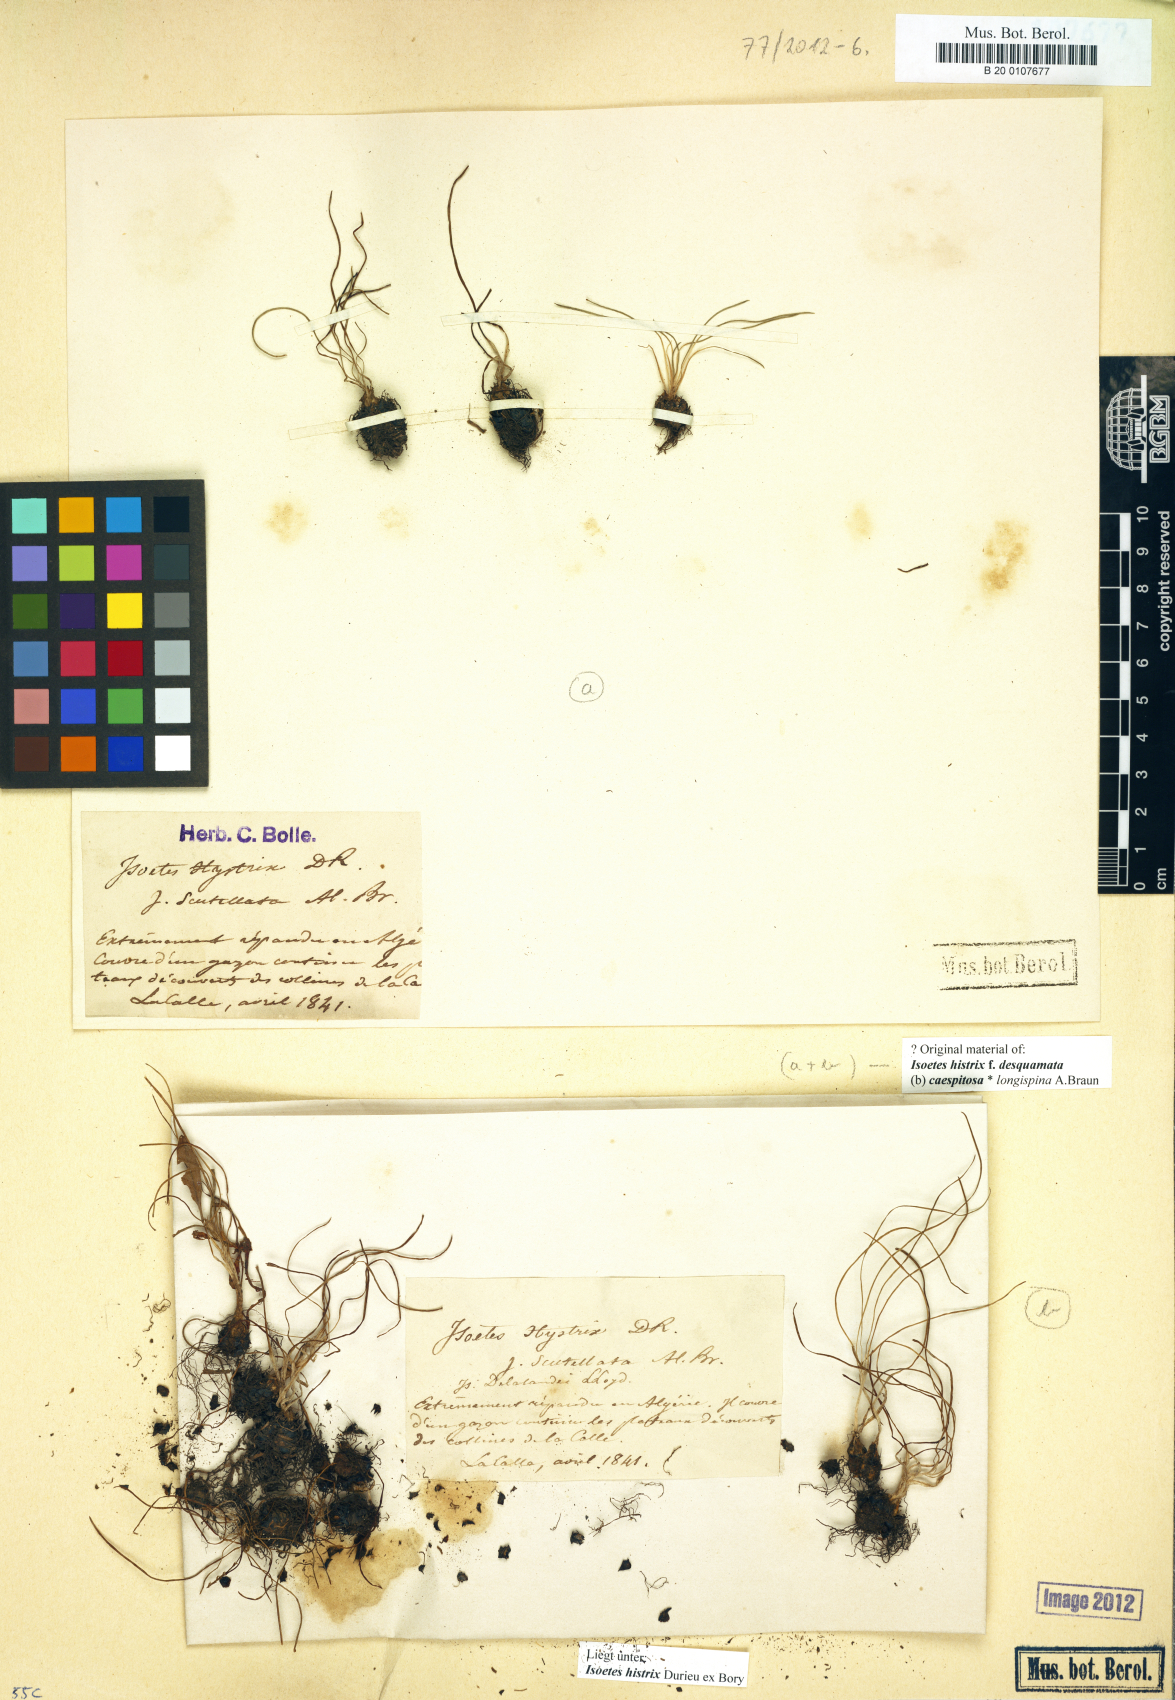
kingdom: Plantae
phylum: Tracheophyta
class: Lycopodiopsida
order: Isoetales
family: Isoetaceae
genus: Isoetes
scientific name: Isoetes histrix
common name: Land quillwort
